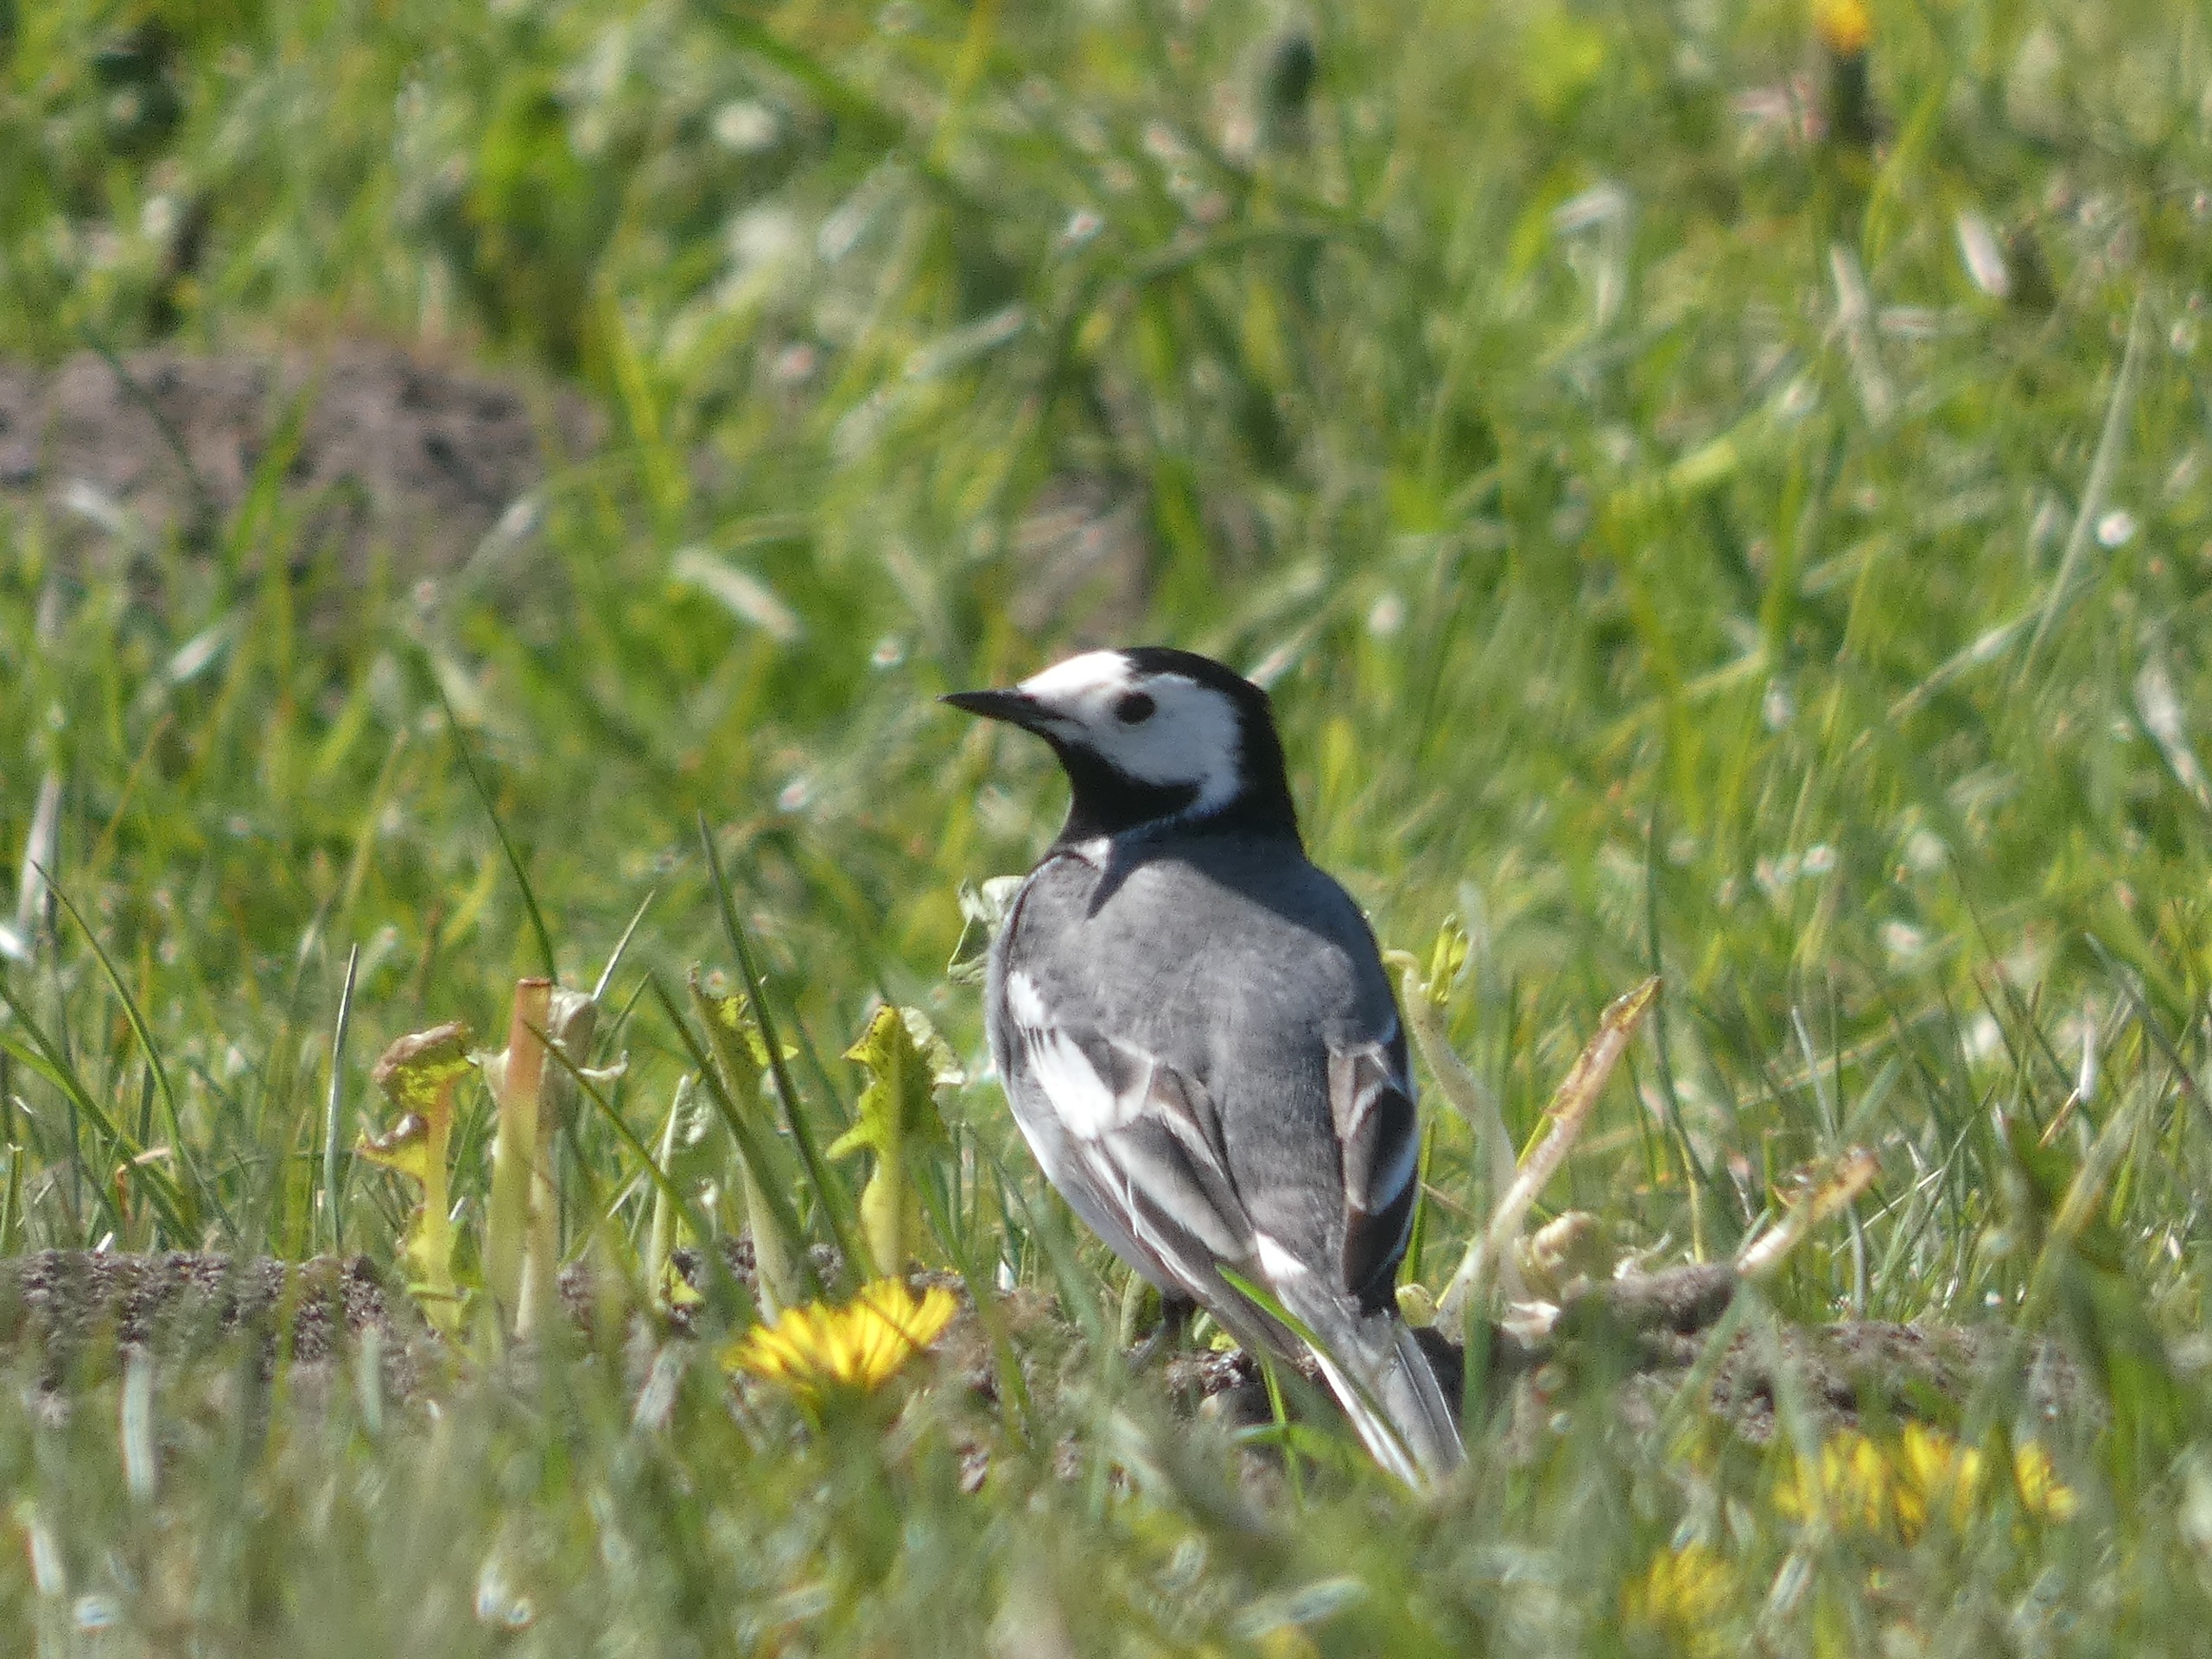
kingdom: Animalia
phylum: Chordata
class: Aves
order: Passeriformes
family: Motacillidae
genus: Motacilla
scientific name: Motacilla alba
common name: Hvid vipstjert
